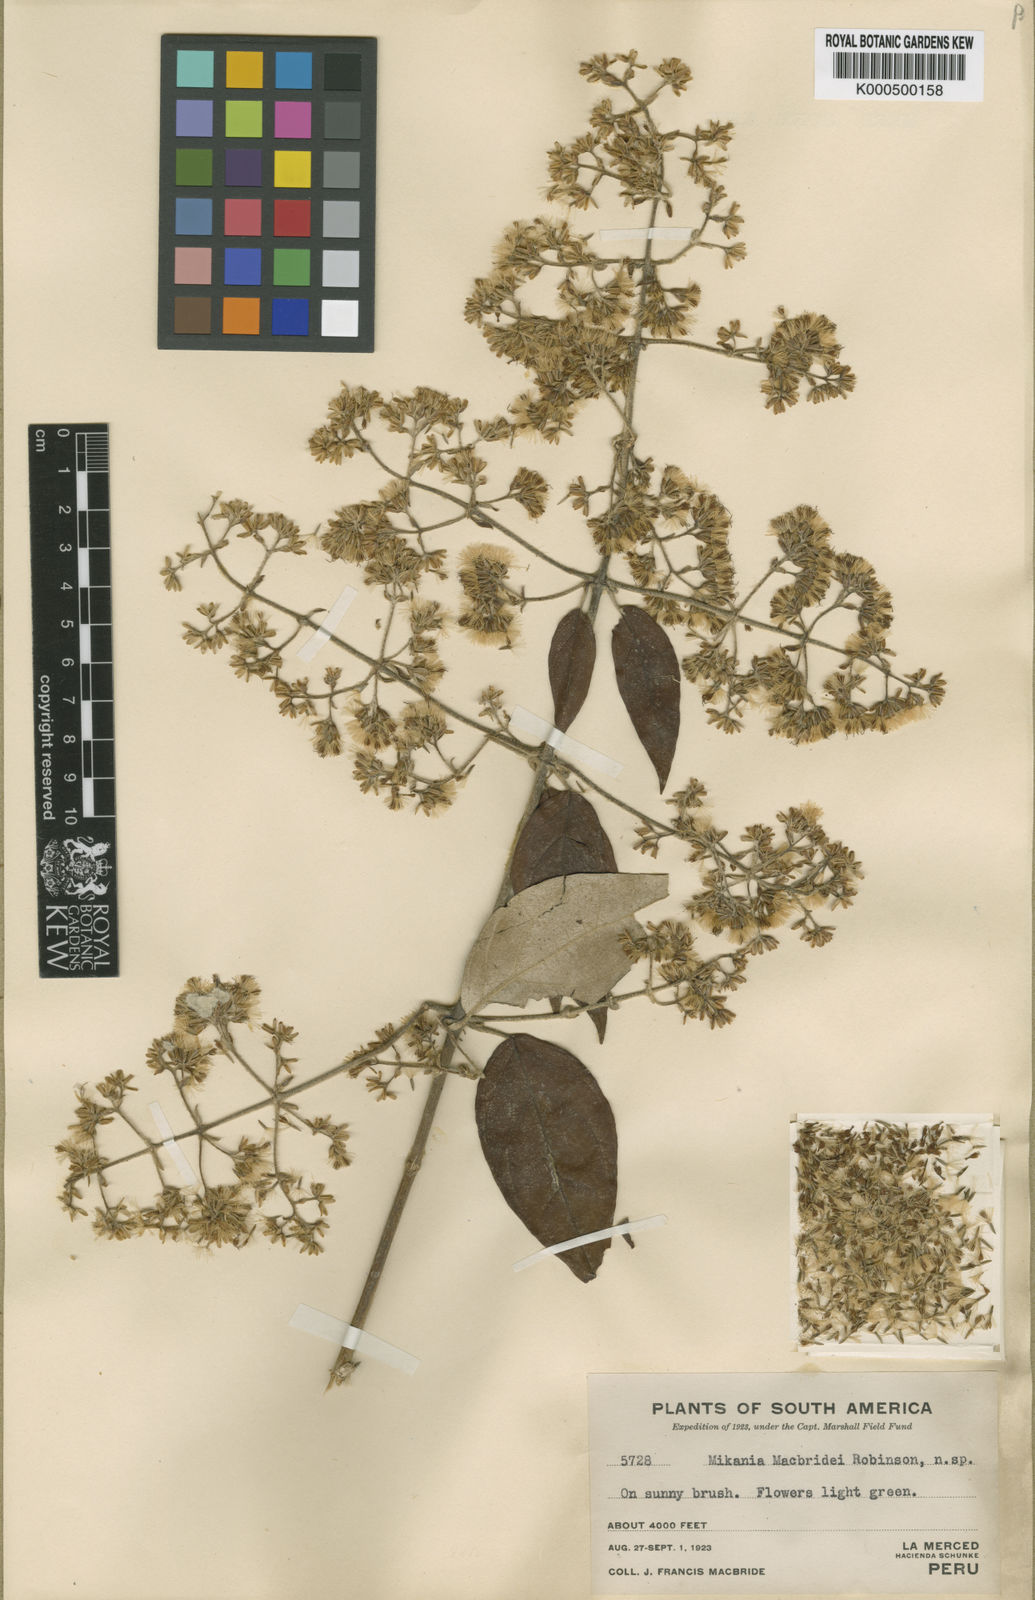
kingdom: Plantae
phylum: Tracheophyta
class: Magnoliopsida
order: Asterales
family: Asteraceae
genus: Mikania
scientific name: Mikania banisteriae
